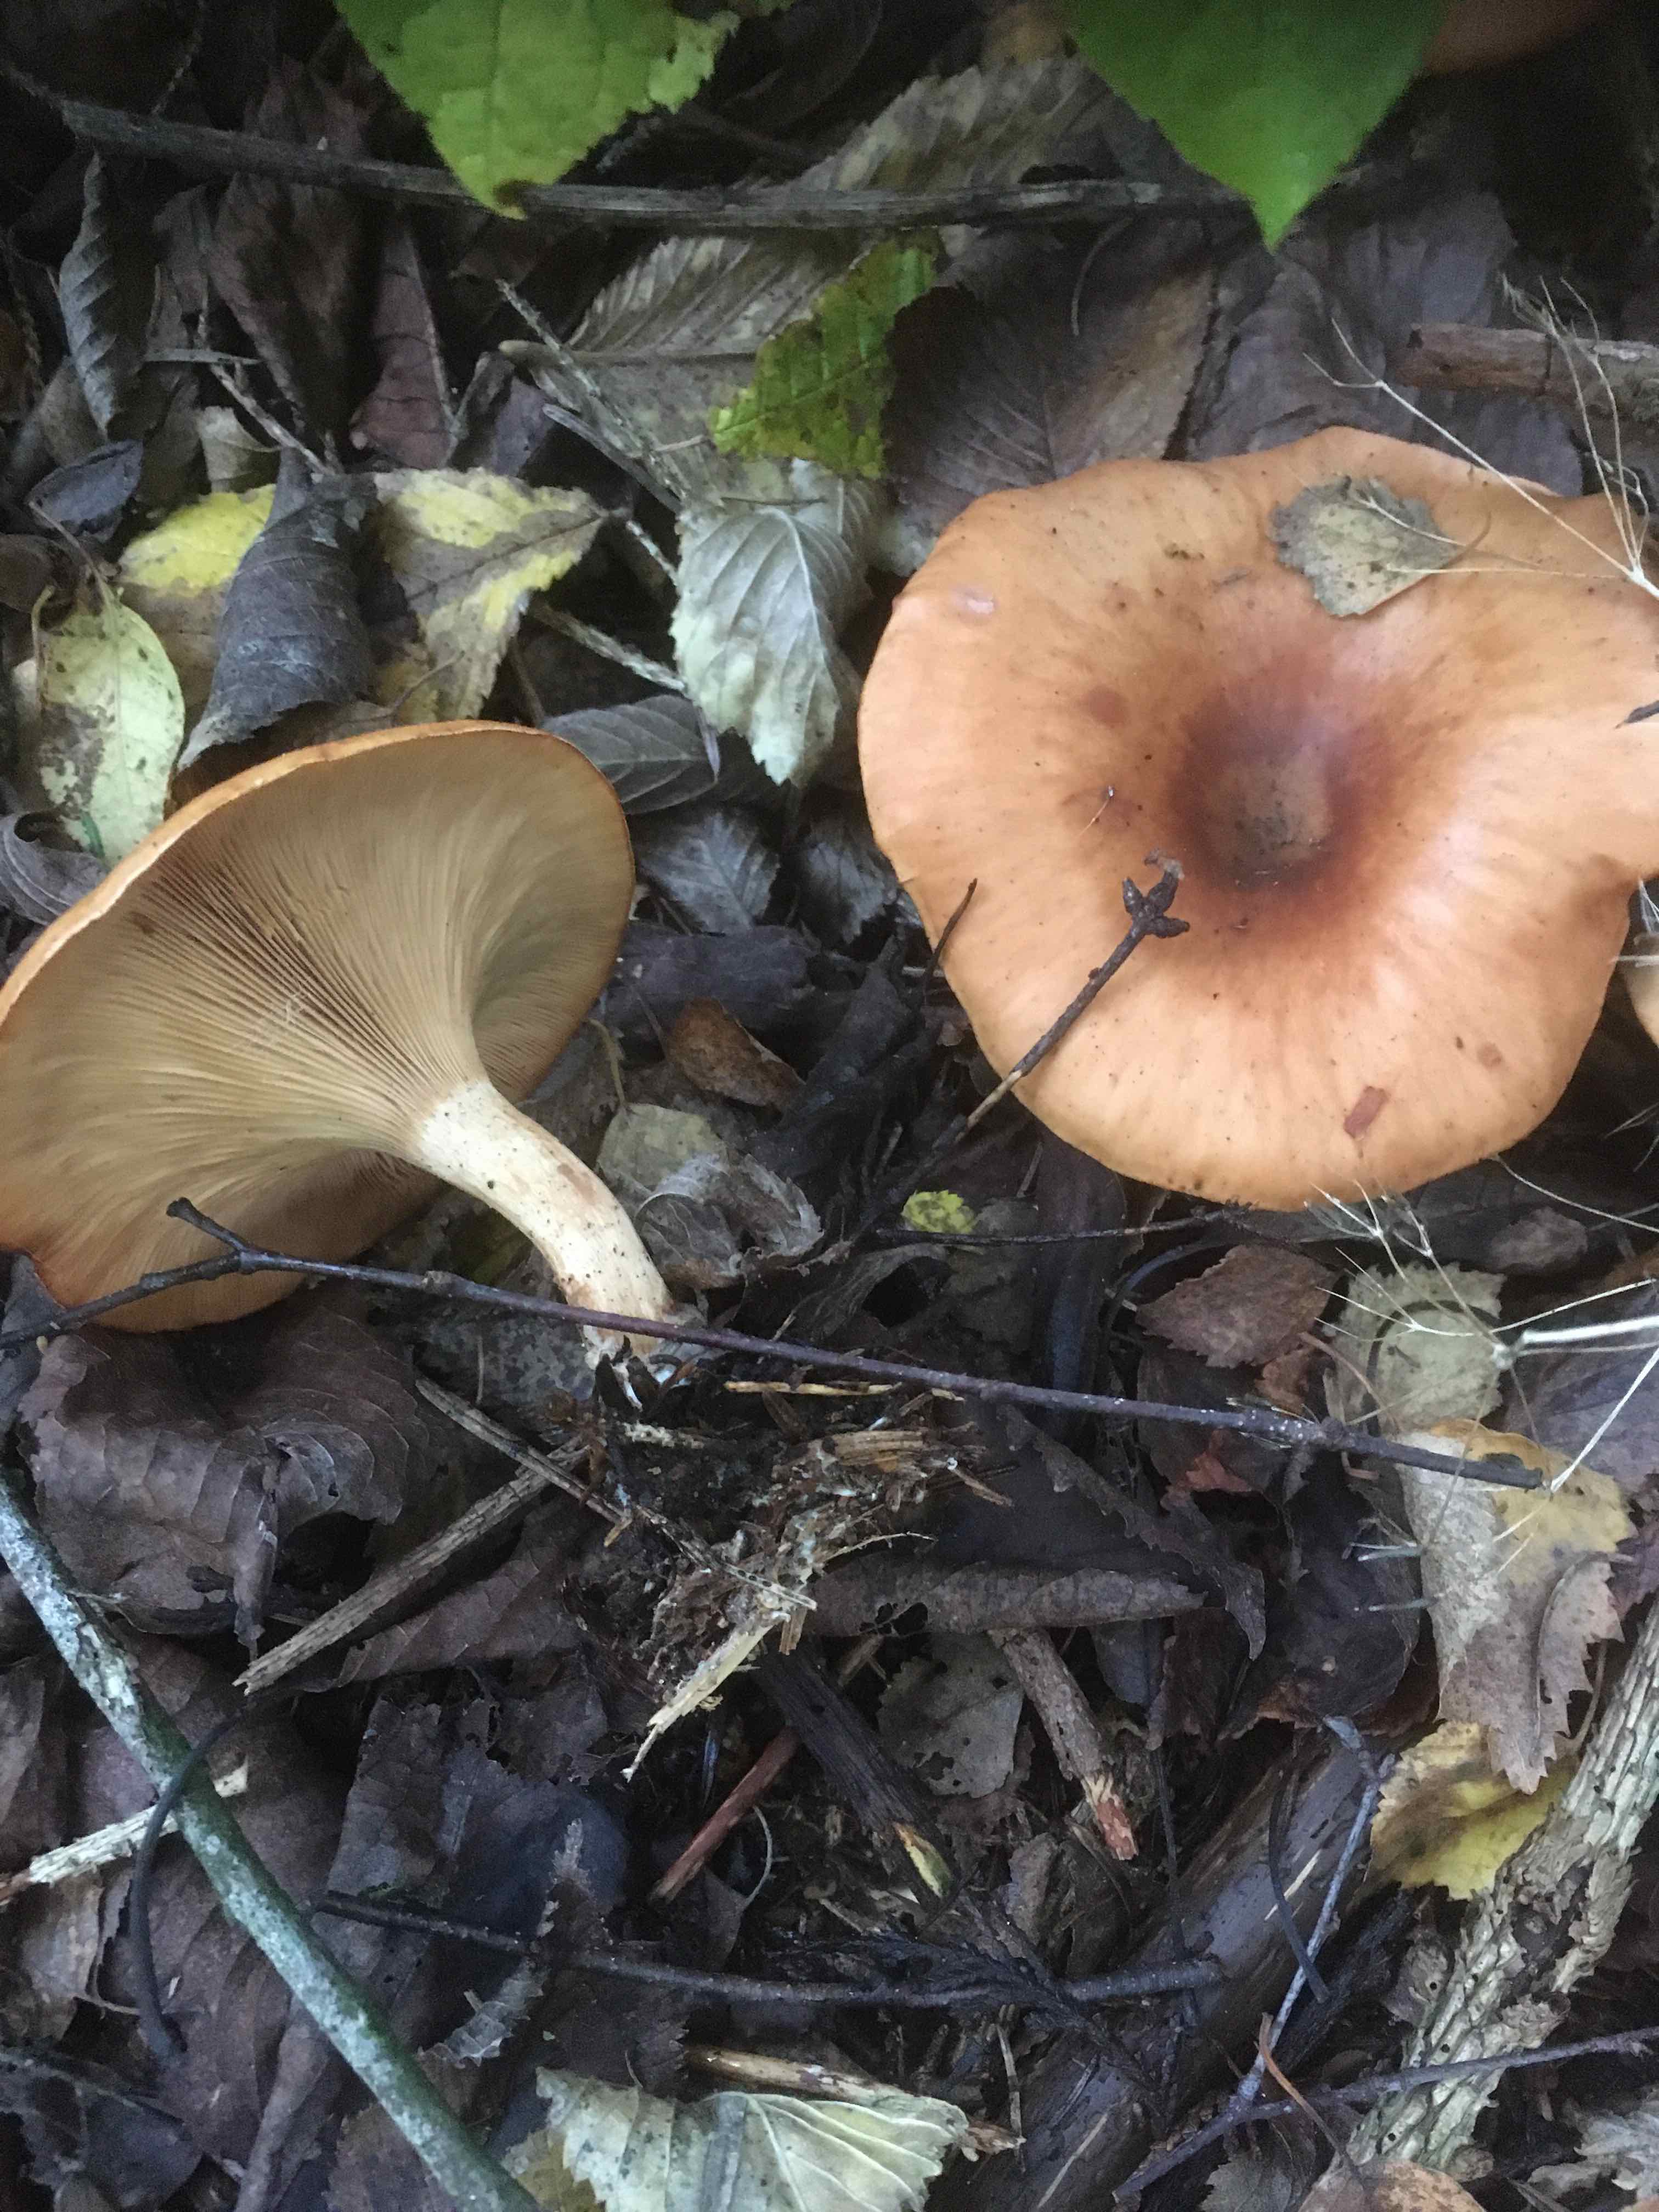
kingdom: Fungi
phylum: Basidiomycota
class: Agaricomycetes
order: Agaricales
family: Tricholomataceae
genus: Paralepista
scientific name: Paralepista flaccida
